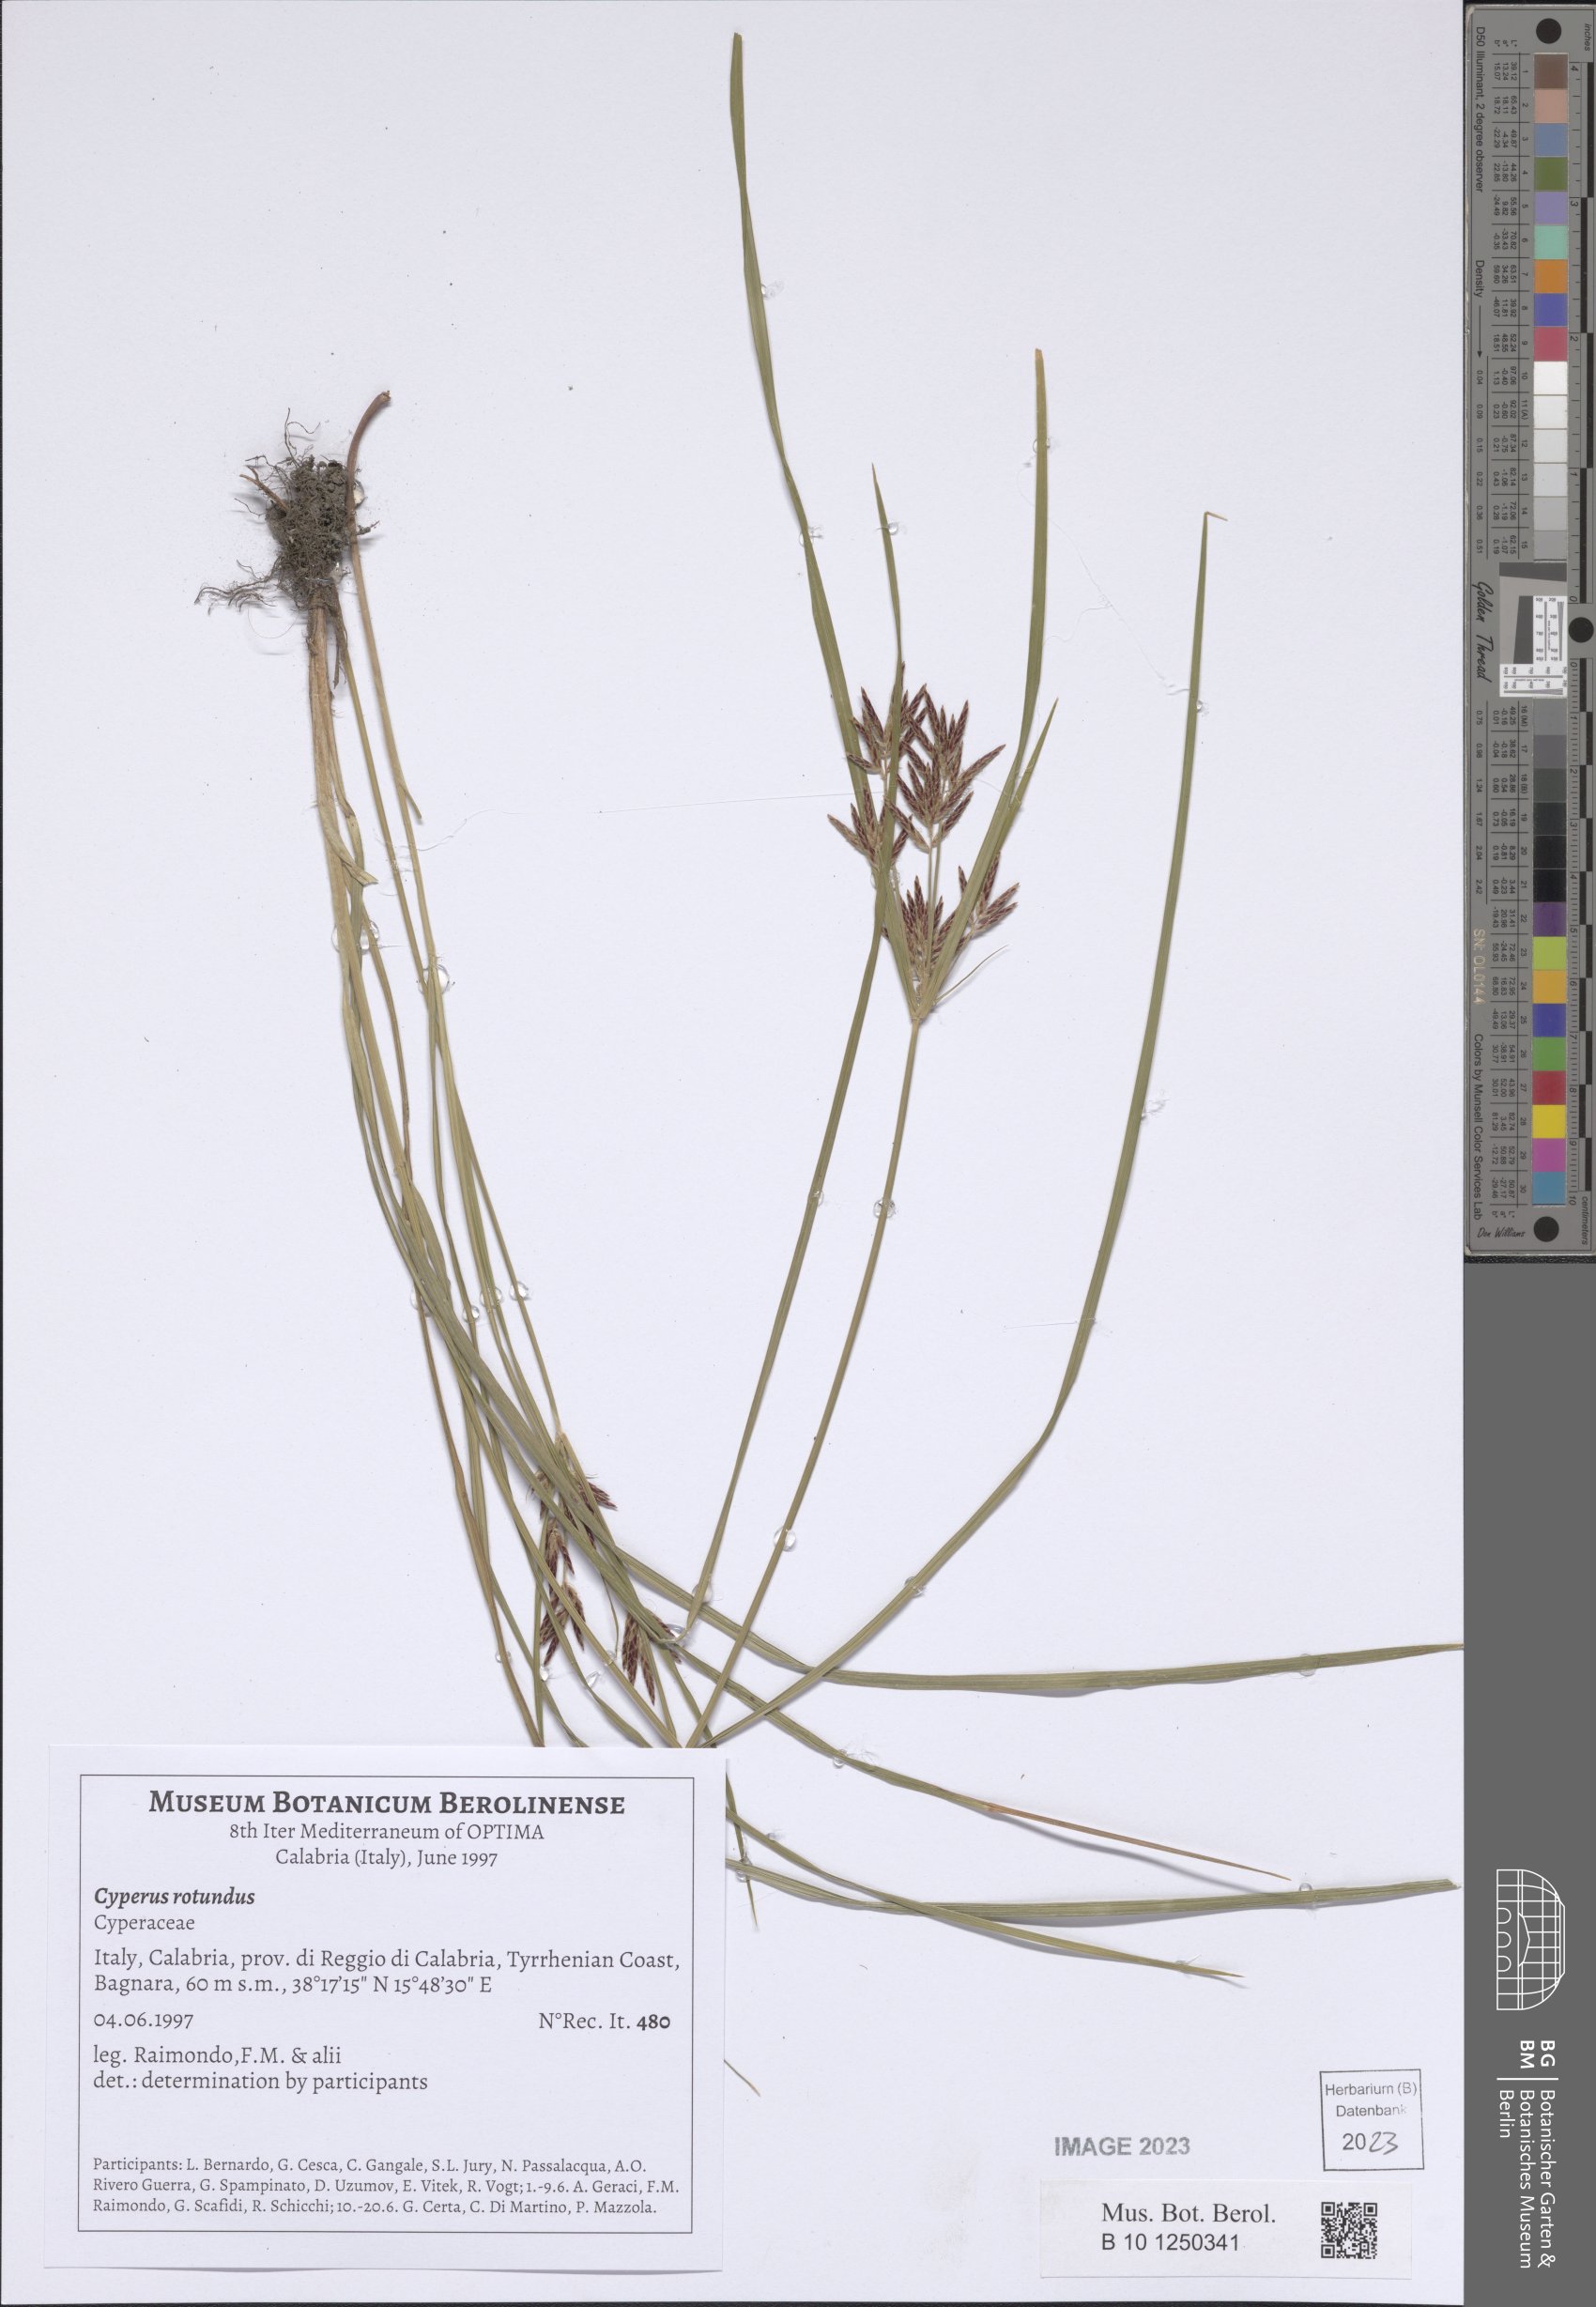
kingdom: Plantae
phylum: Tracheophyta
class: Liliopsida
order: Poales
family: Cyperaceae
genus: Cyperus
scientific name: Cyperus rotundus
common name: Nutgrass
